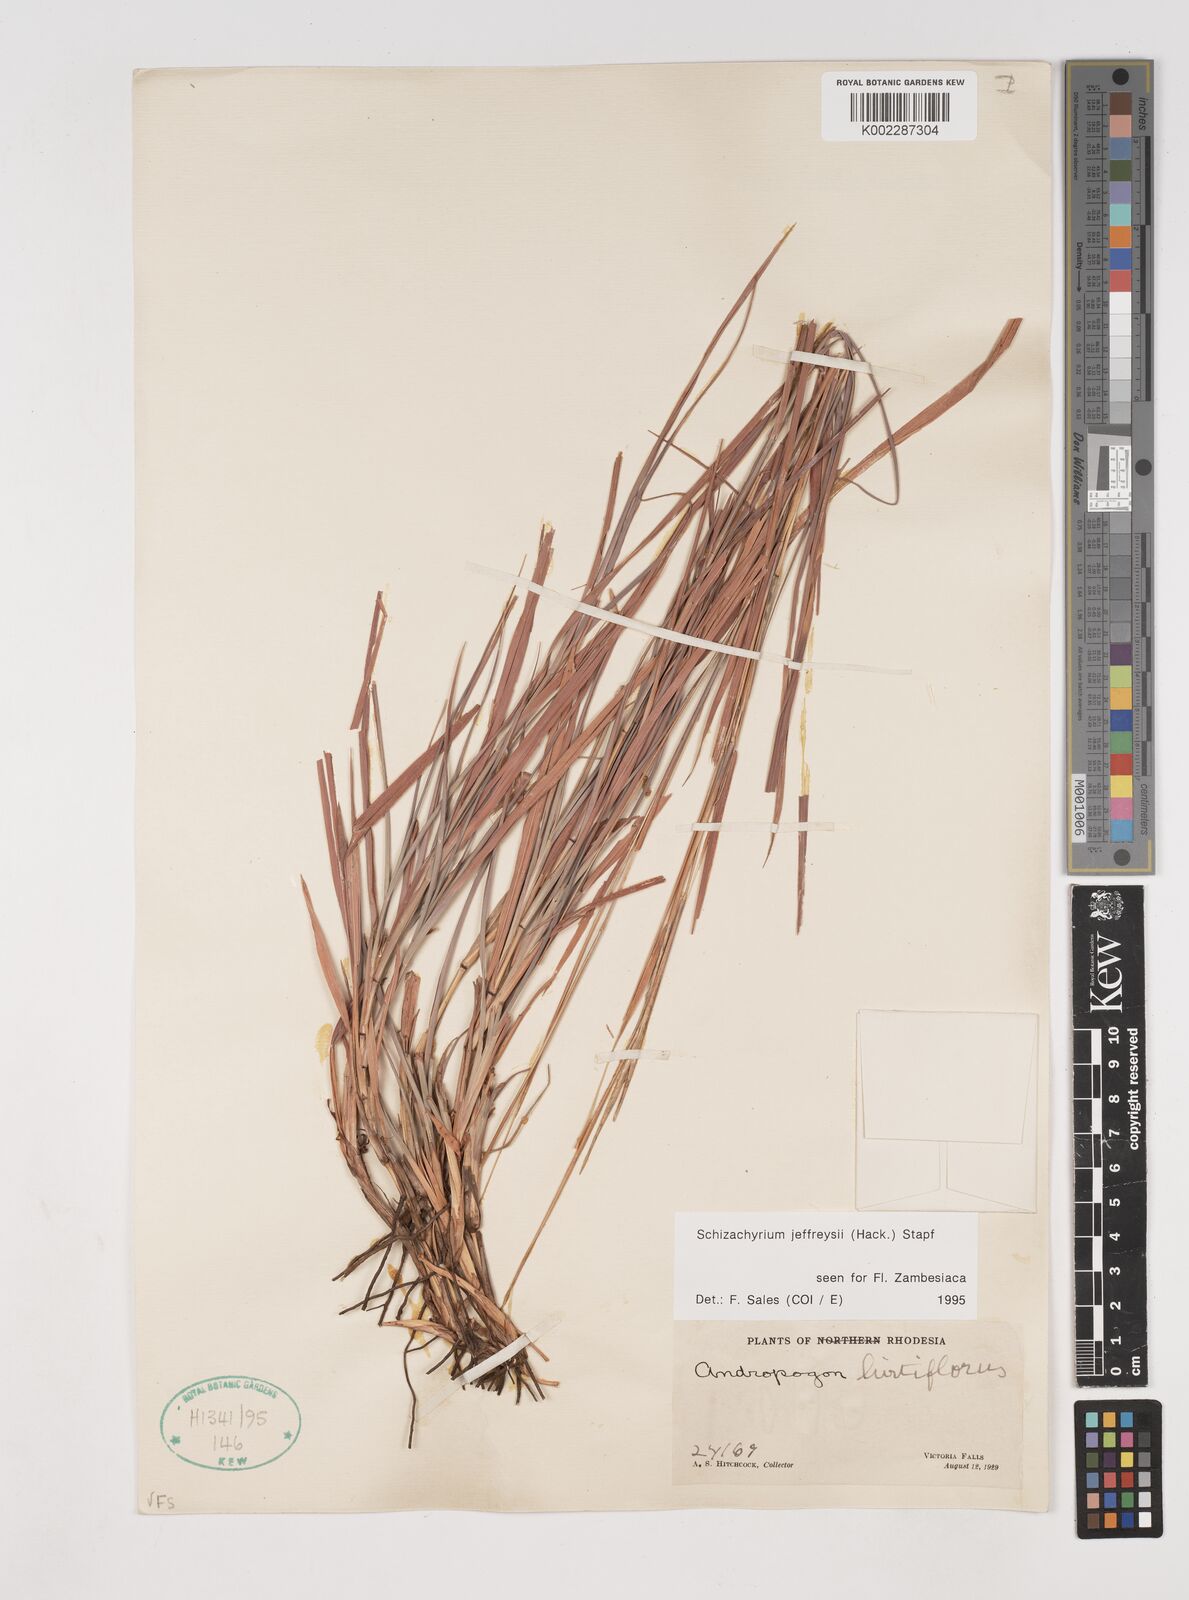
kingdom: Plantae
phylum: Tracheophyta
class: Liliopsida
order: Poales
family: Poaceae
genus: Schizachyrium
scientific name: Schizachyrium jeffreysii
